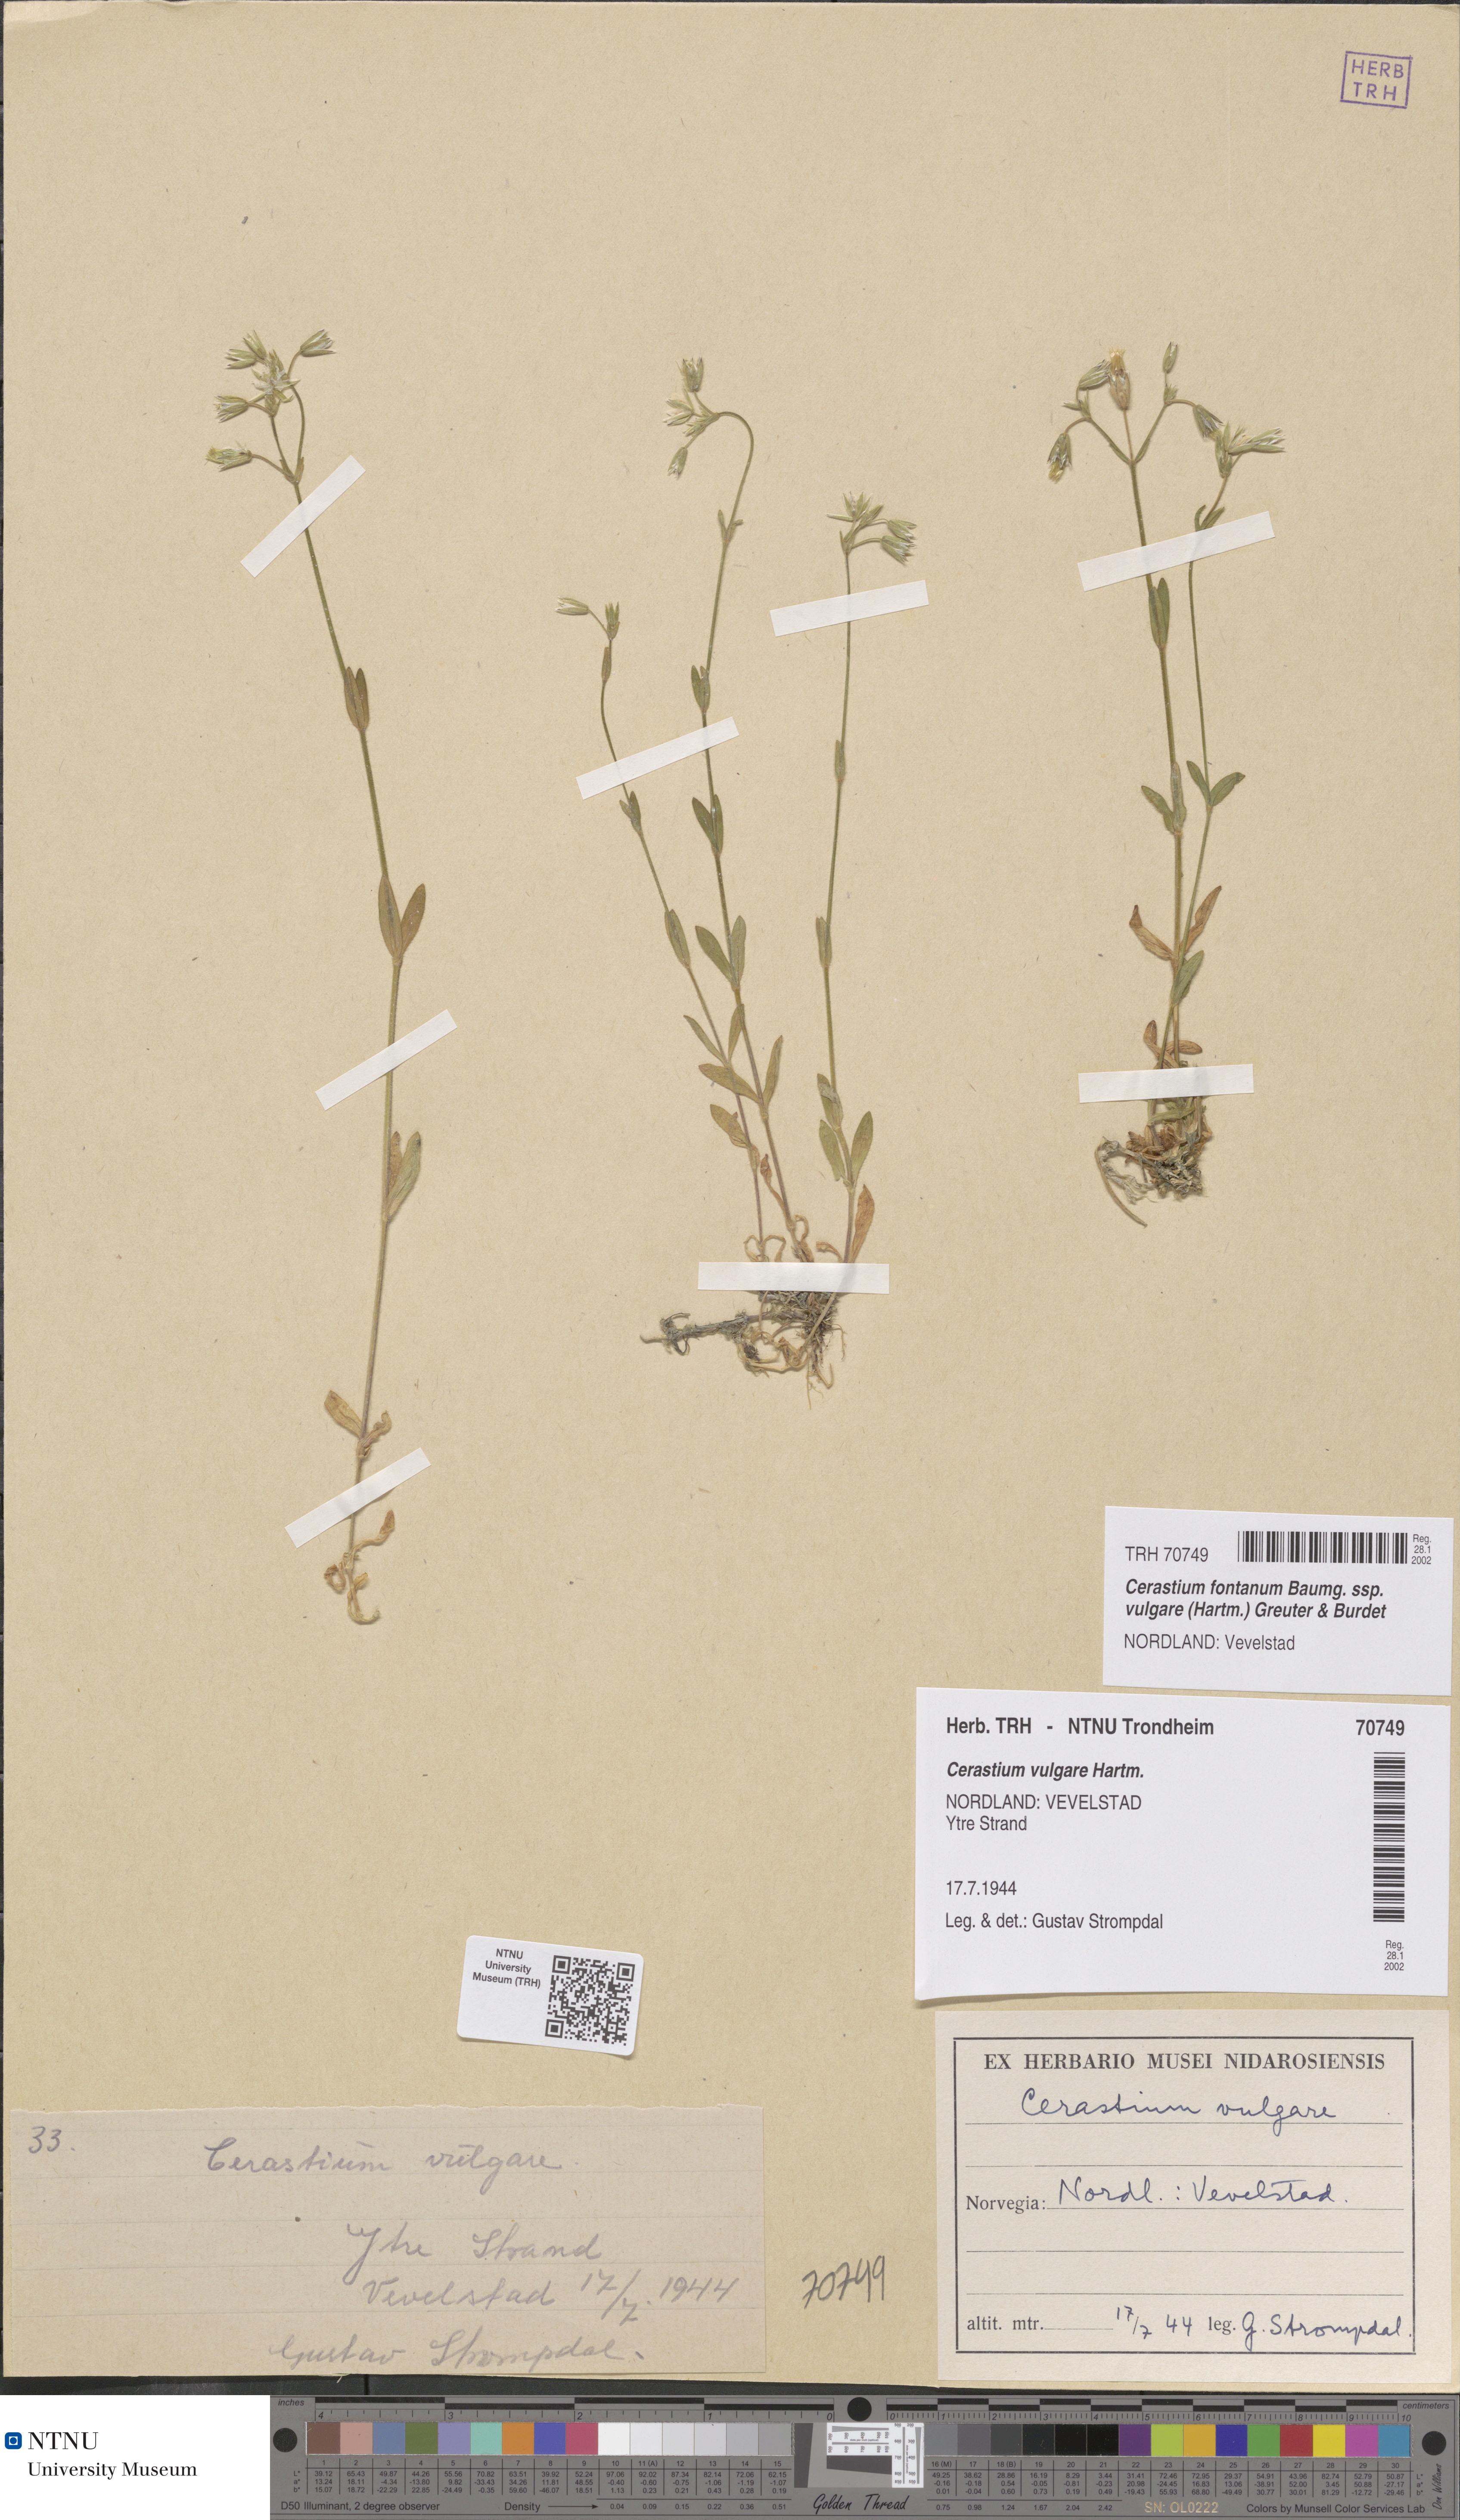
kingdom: Plantae
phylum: Tracheophyta
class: Magnoliopsida
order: Caryophyllales
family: Caryophyllaceae
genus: Cerastium
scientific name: Cerastium holosteoides
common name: Big chickweed
